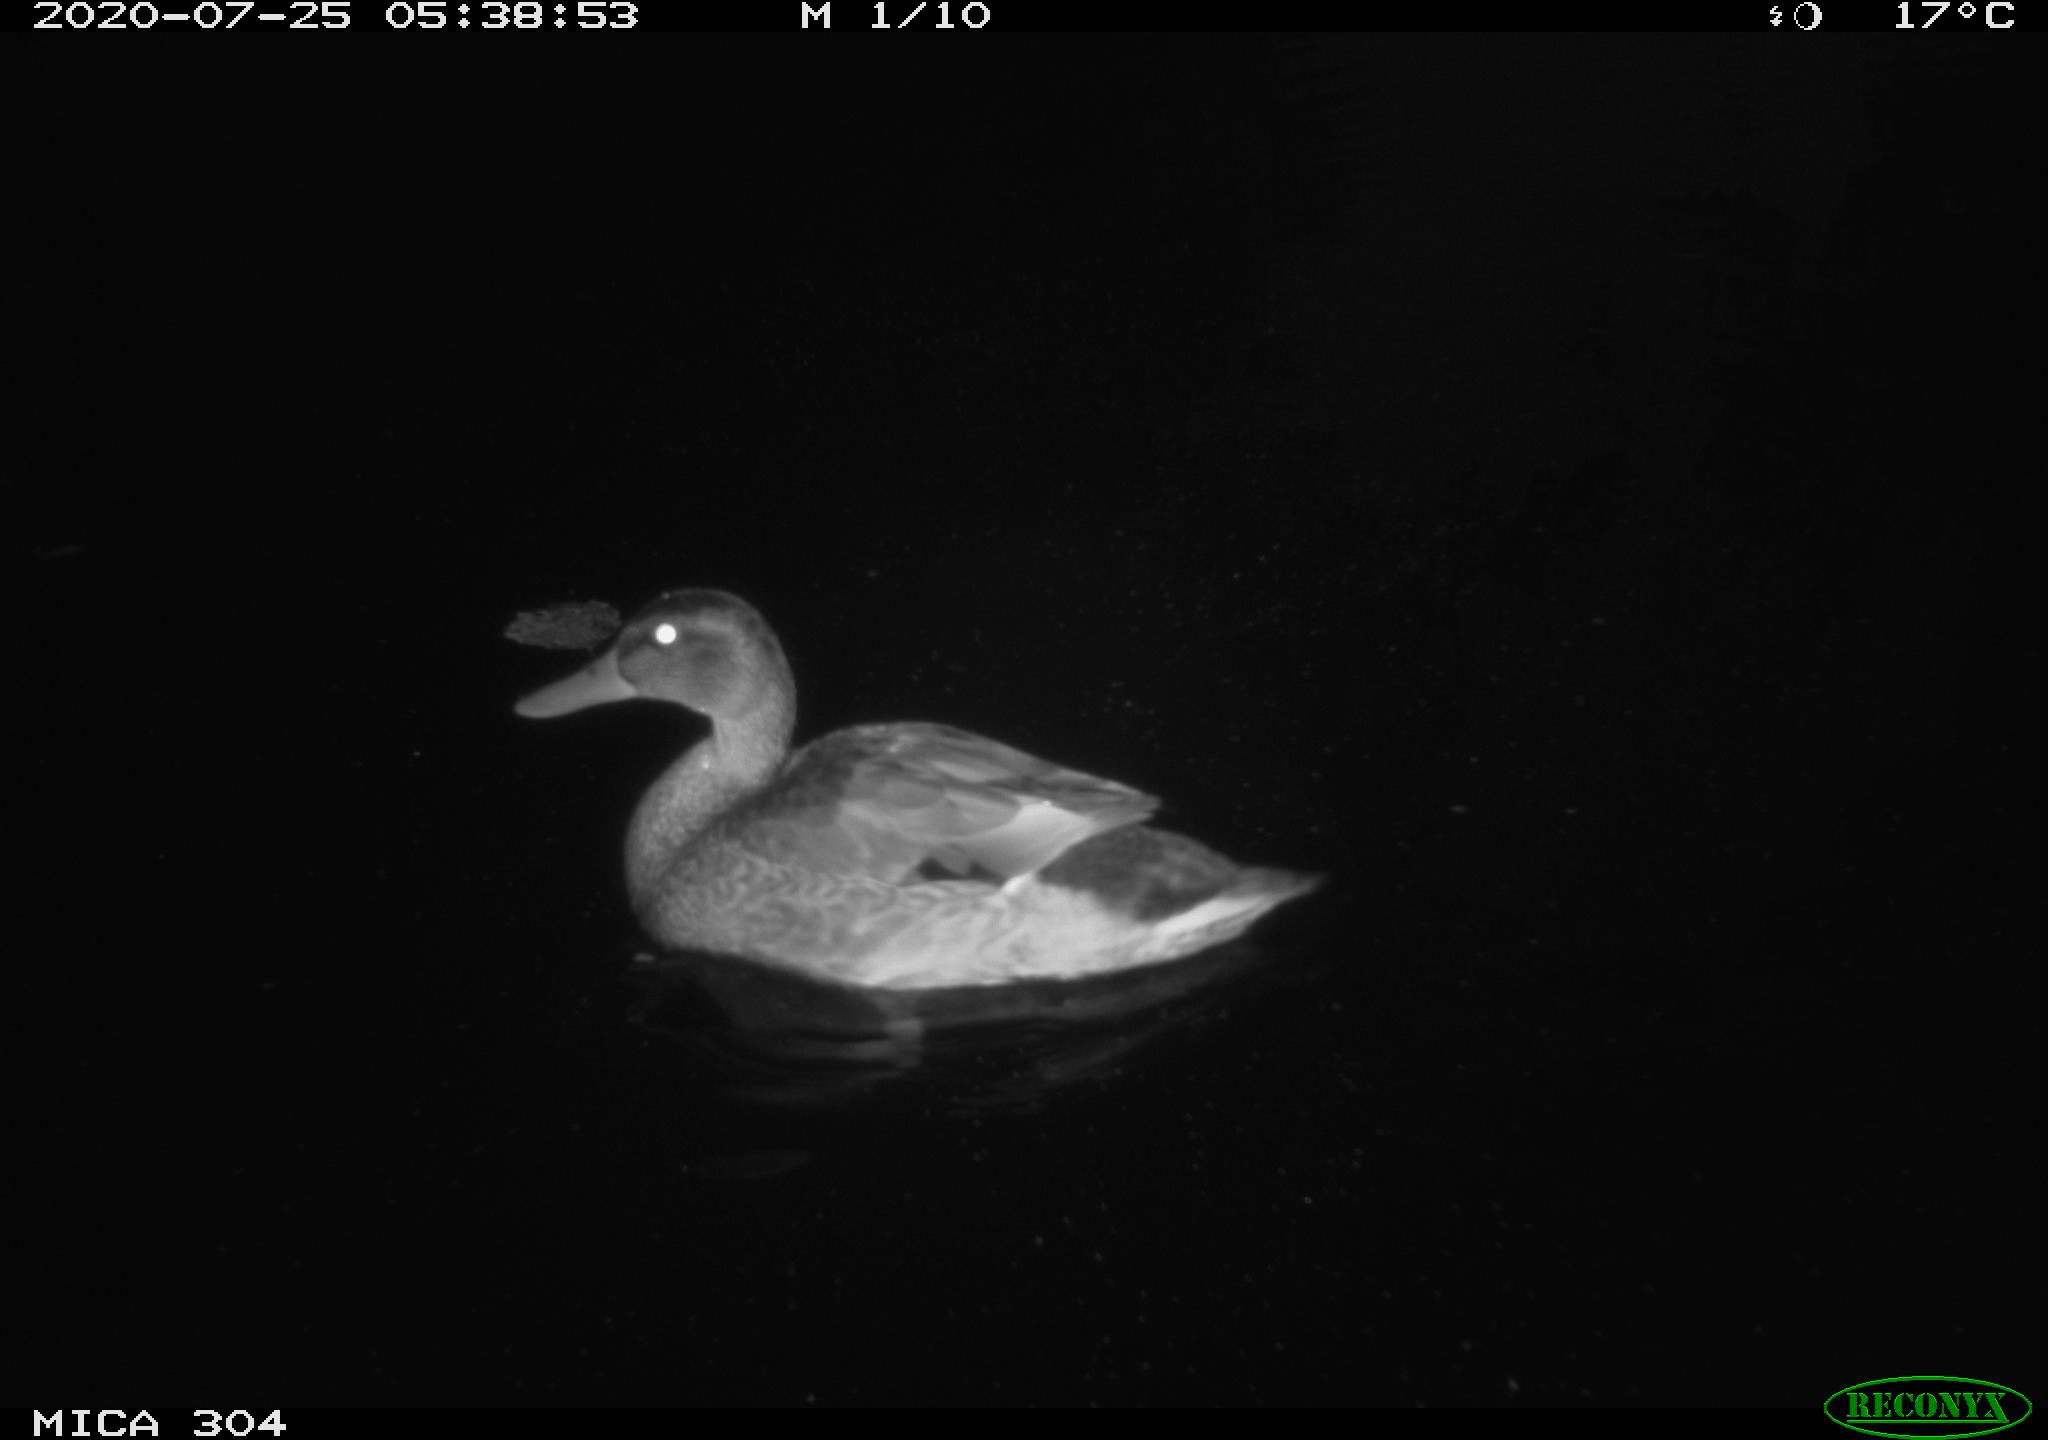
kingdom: Animalia
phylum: Chordata
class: Aves
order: Anseriformes
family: Anatidae
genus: Anas
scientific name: Anas platyrhynchos
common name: Mallard
